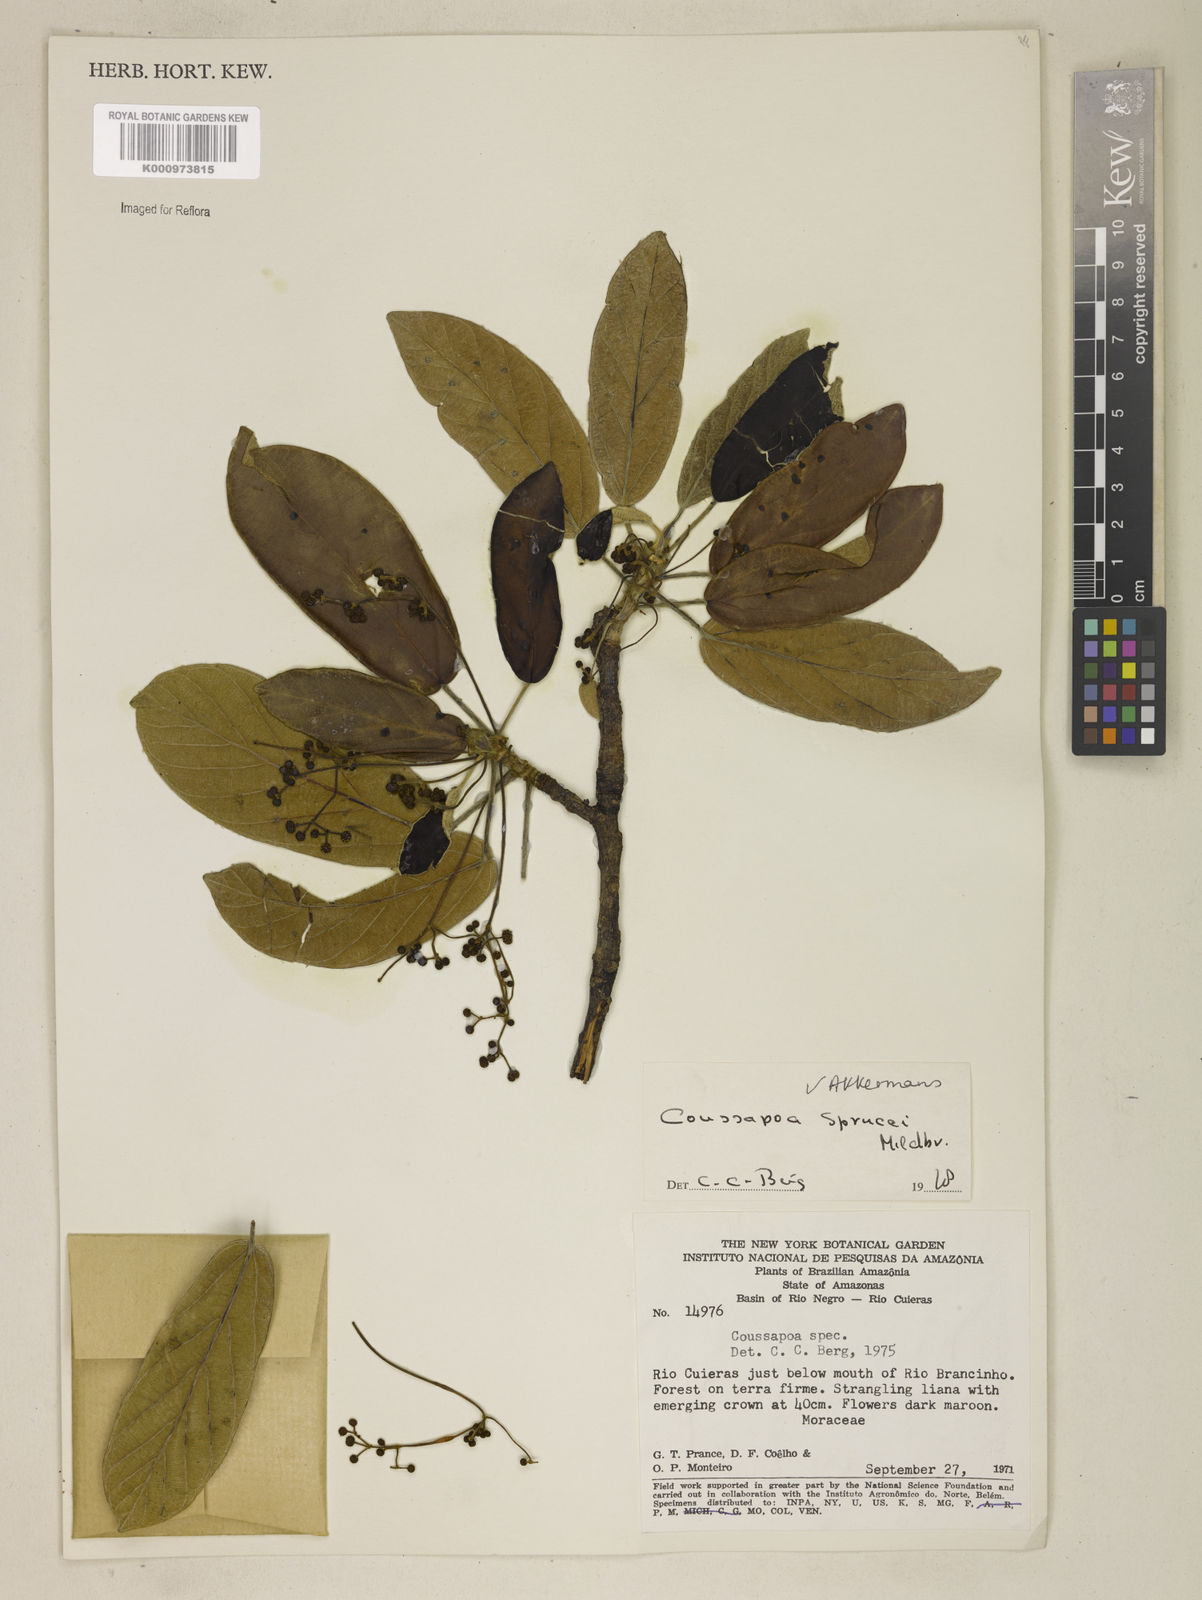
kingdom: Plantae
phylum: Tracheophyta
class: Magnoliopsida
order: Rosales
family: Urticaceae
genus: Coussapoa
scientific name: Coussapoa sprucei
